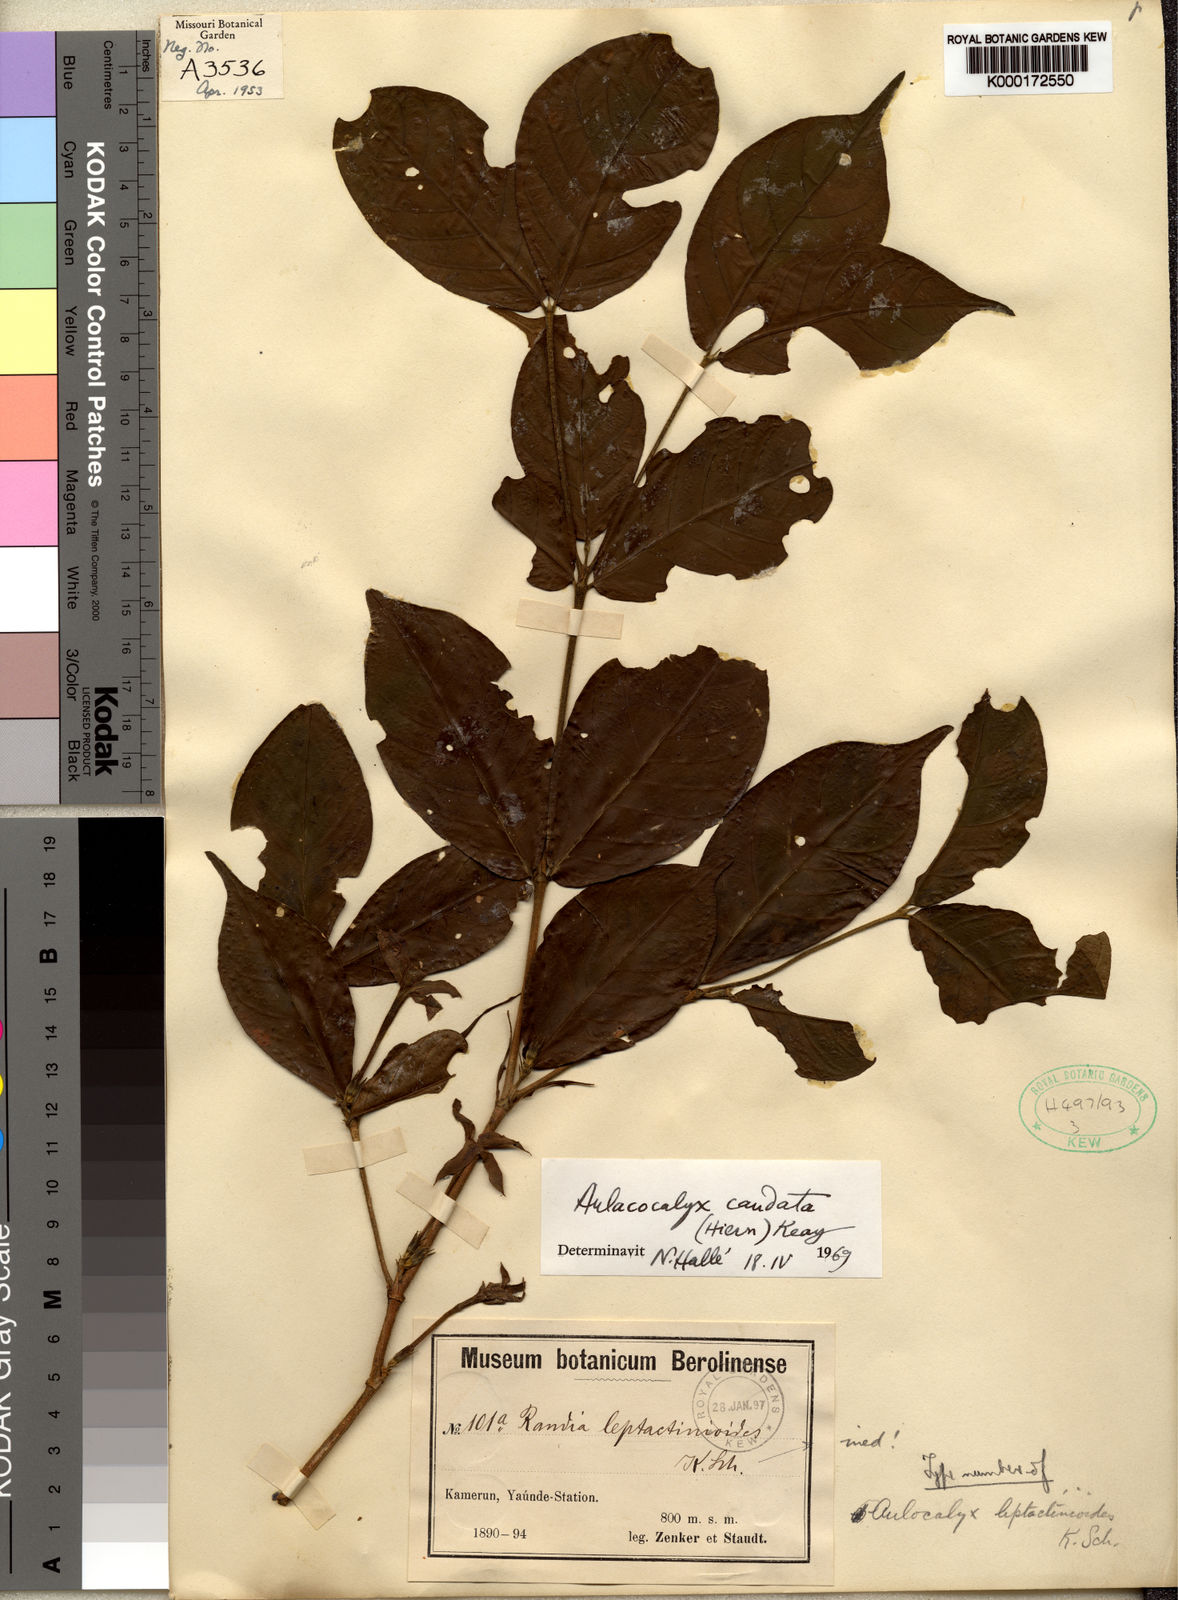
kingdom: Plantae
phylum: Tracheophyta
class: Magnoliopsida
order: Gentianales
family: Rubiaceae
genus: Aulacocalyx
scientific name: Aulacocalyx caudata
